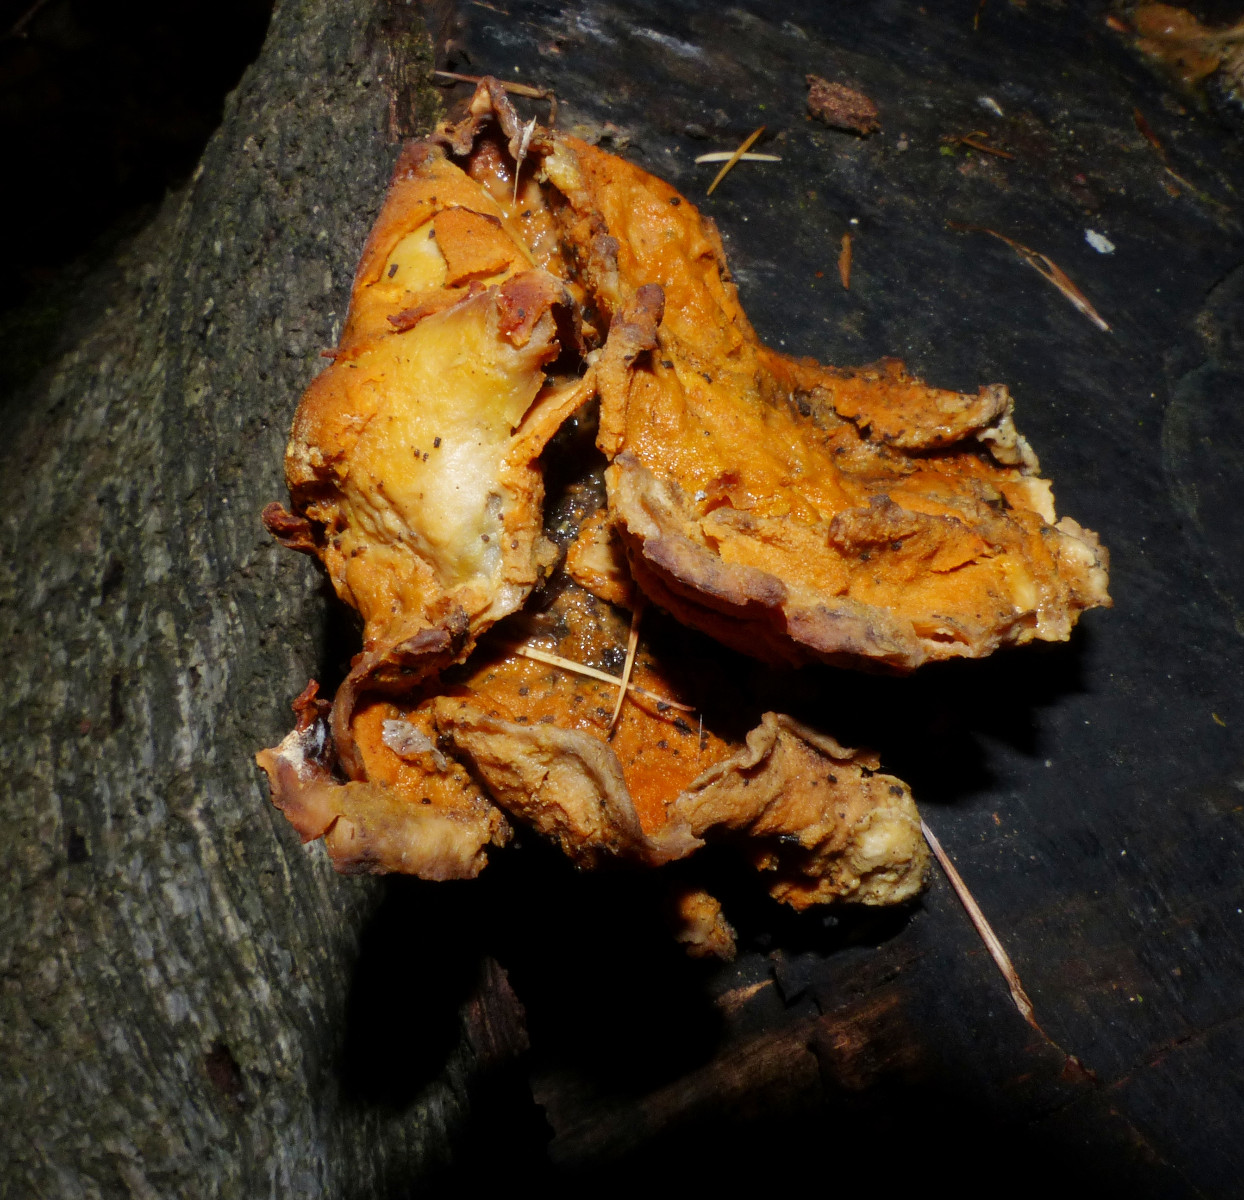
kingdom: Fungi
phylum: Ascomycota
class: Sordariomycetes
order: Hypocreales
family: Hypocreaceae
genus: Protocrea
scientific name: Protocrea pallida
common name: bleg kødkerne
